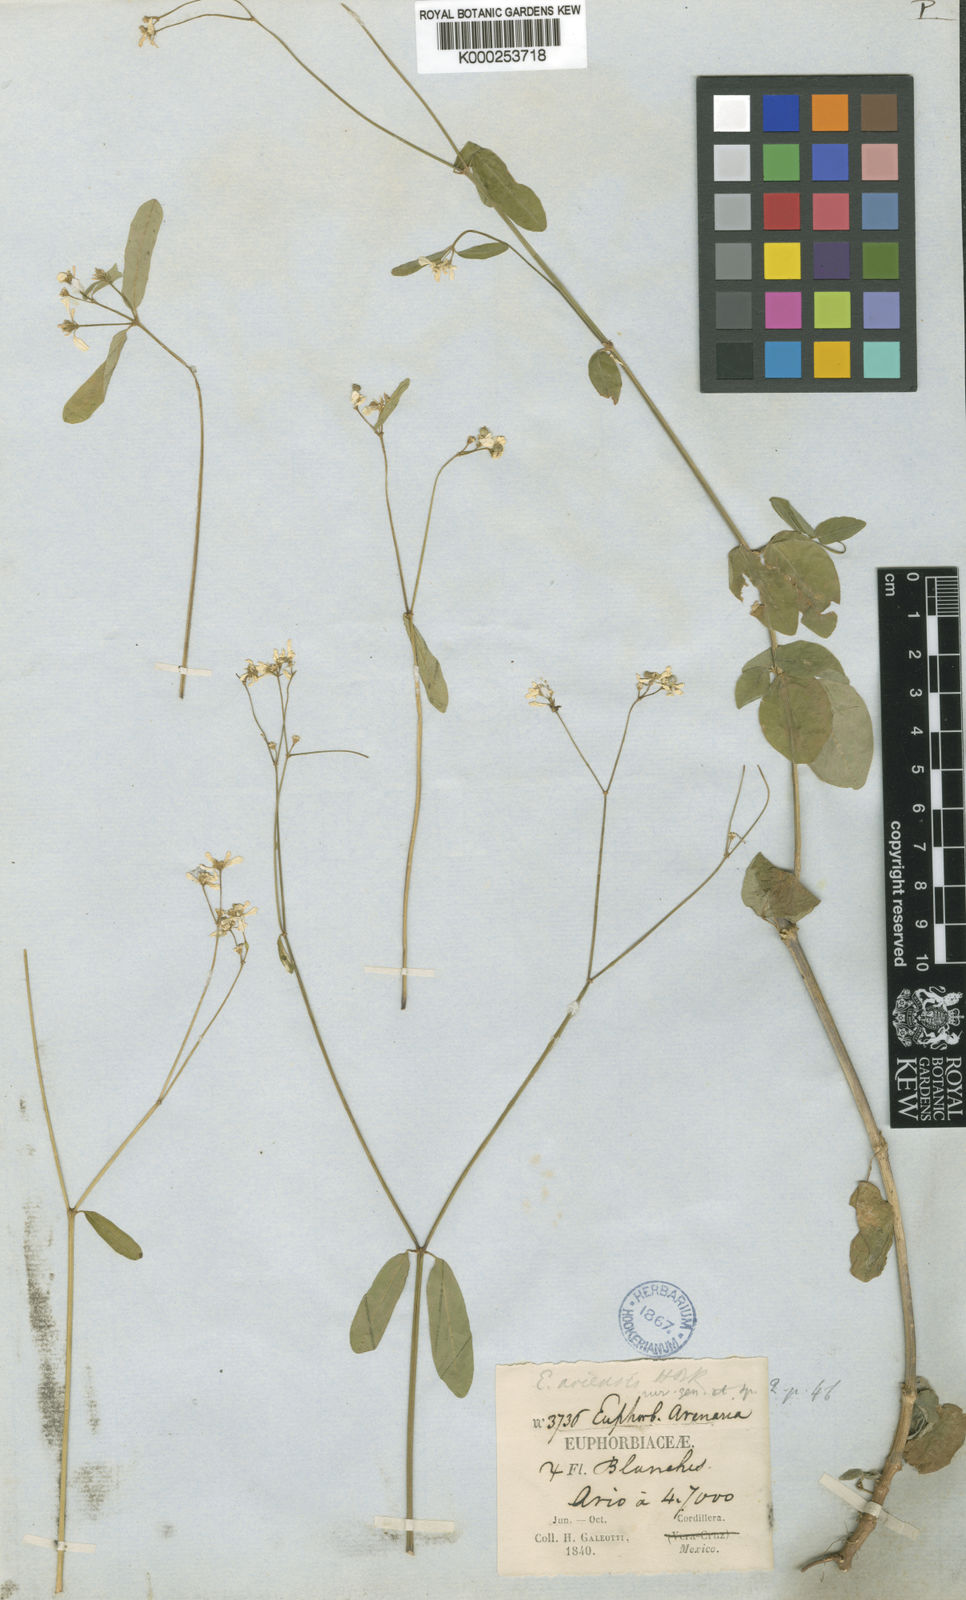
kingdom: Plantae
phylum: Tracheophyta
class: Magnoliopsida
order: Malpighiales
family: Euphorbiaceae
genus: Euphorbia
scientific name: Euphorbia ariensis
